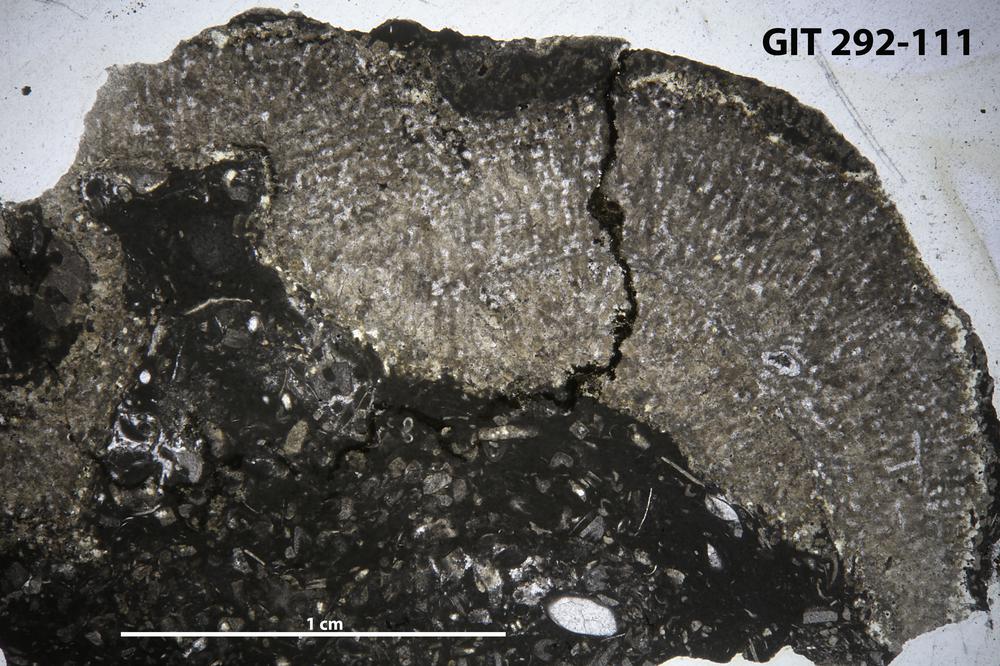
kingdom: Animalia
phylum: Porifera
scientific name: Porifera
